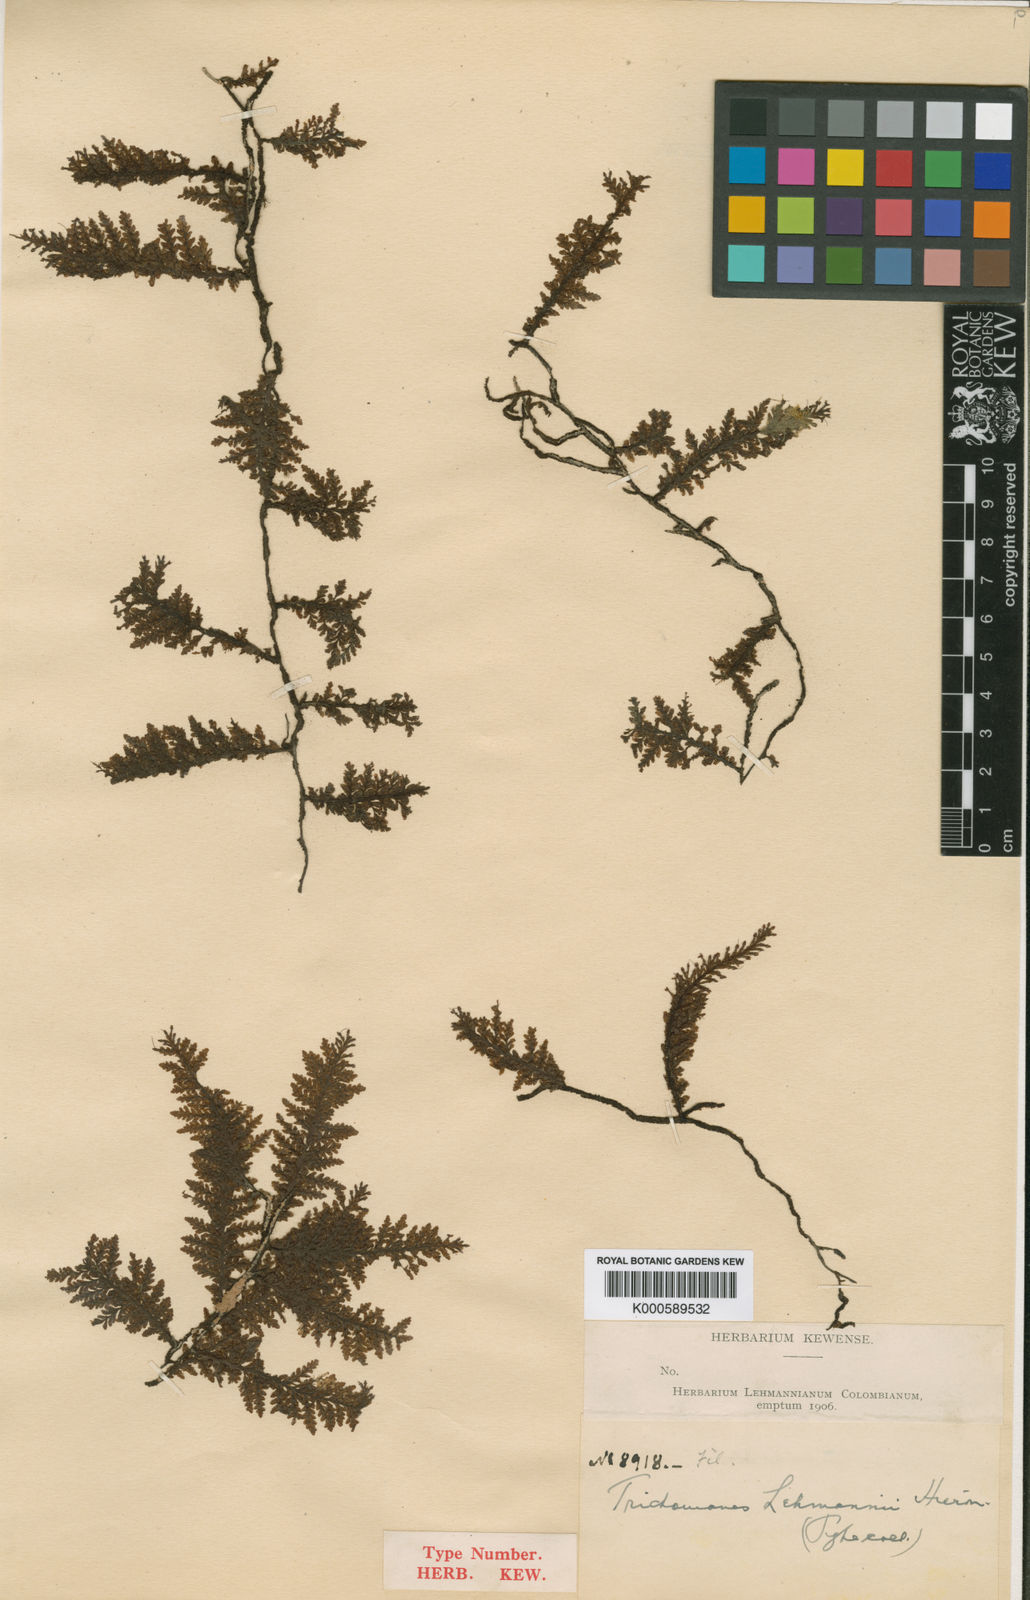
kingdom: Plantae
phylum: Tracheophyta
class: Polypodiopsida
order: Hymenophyllales
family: Hymenophyllaceae
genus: Didymoglossum
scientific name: Didymoglossum lehmannii
